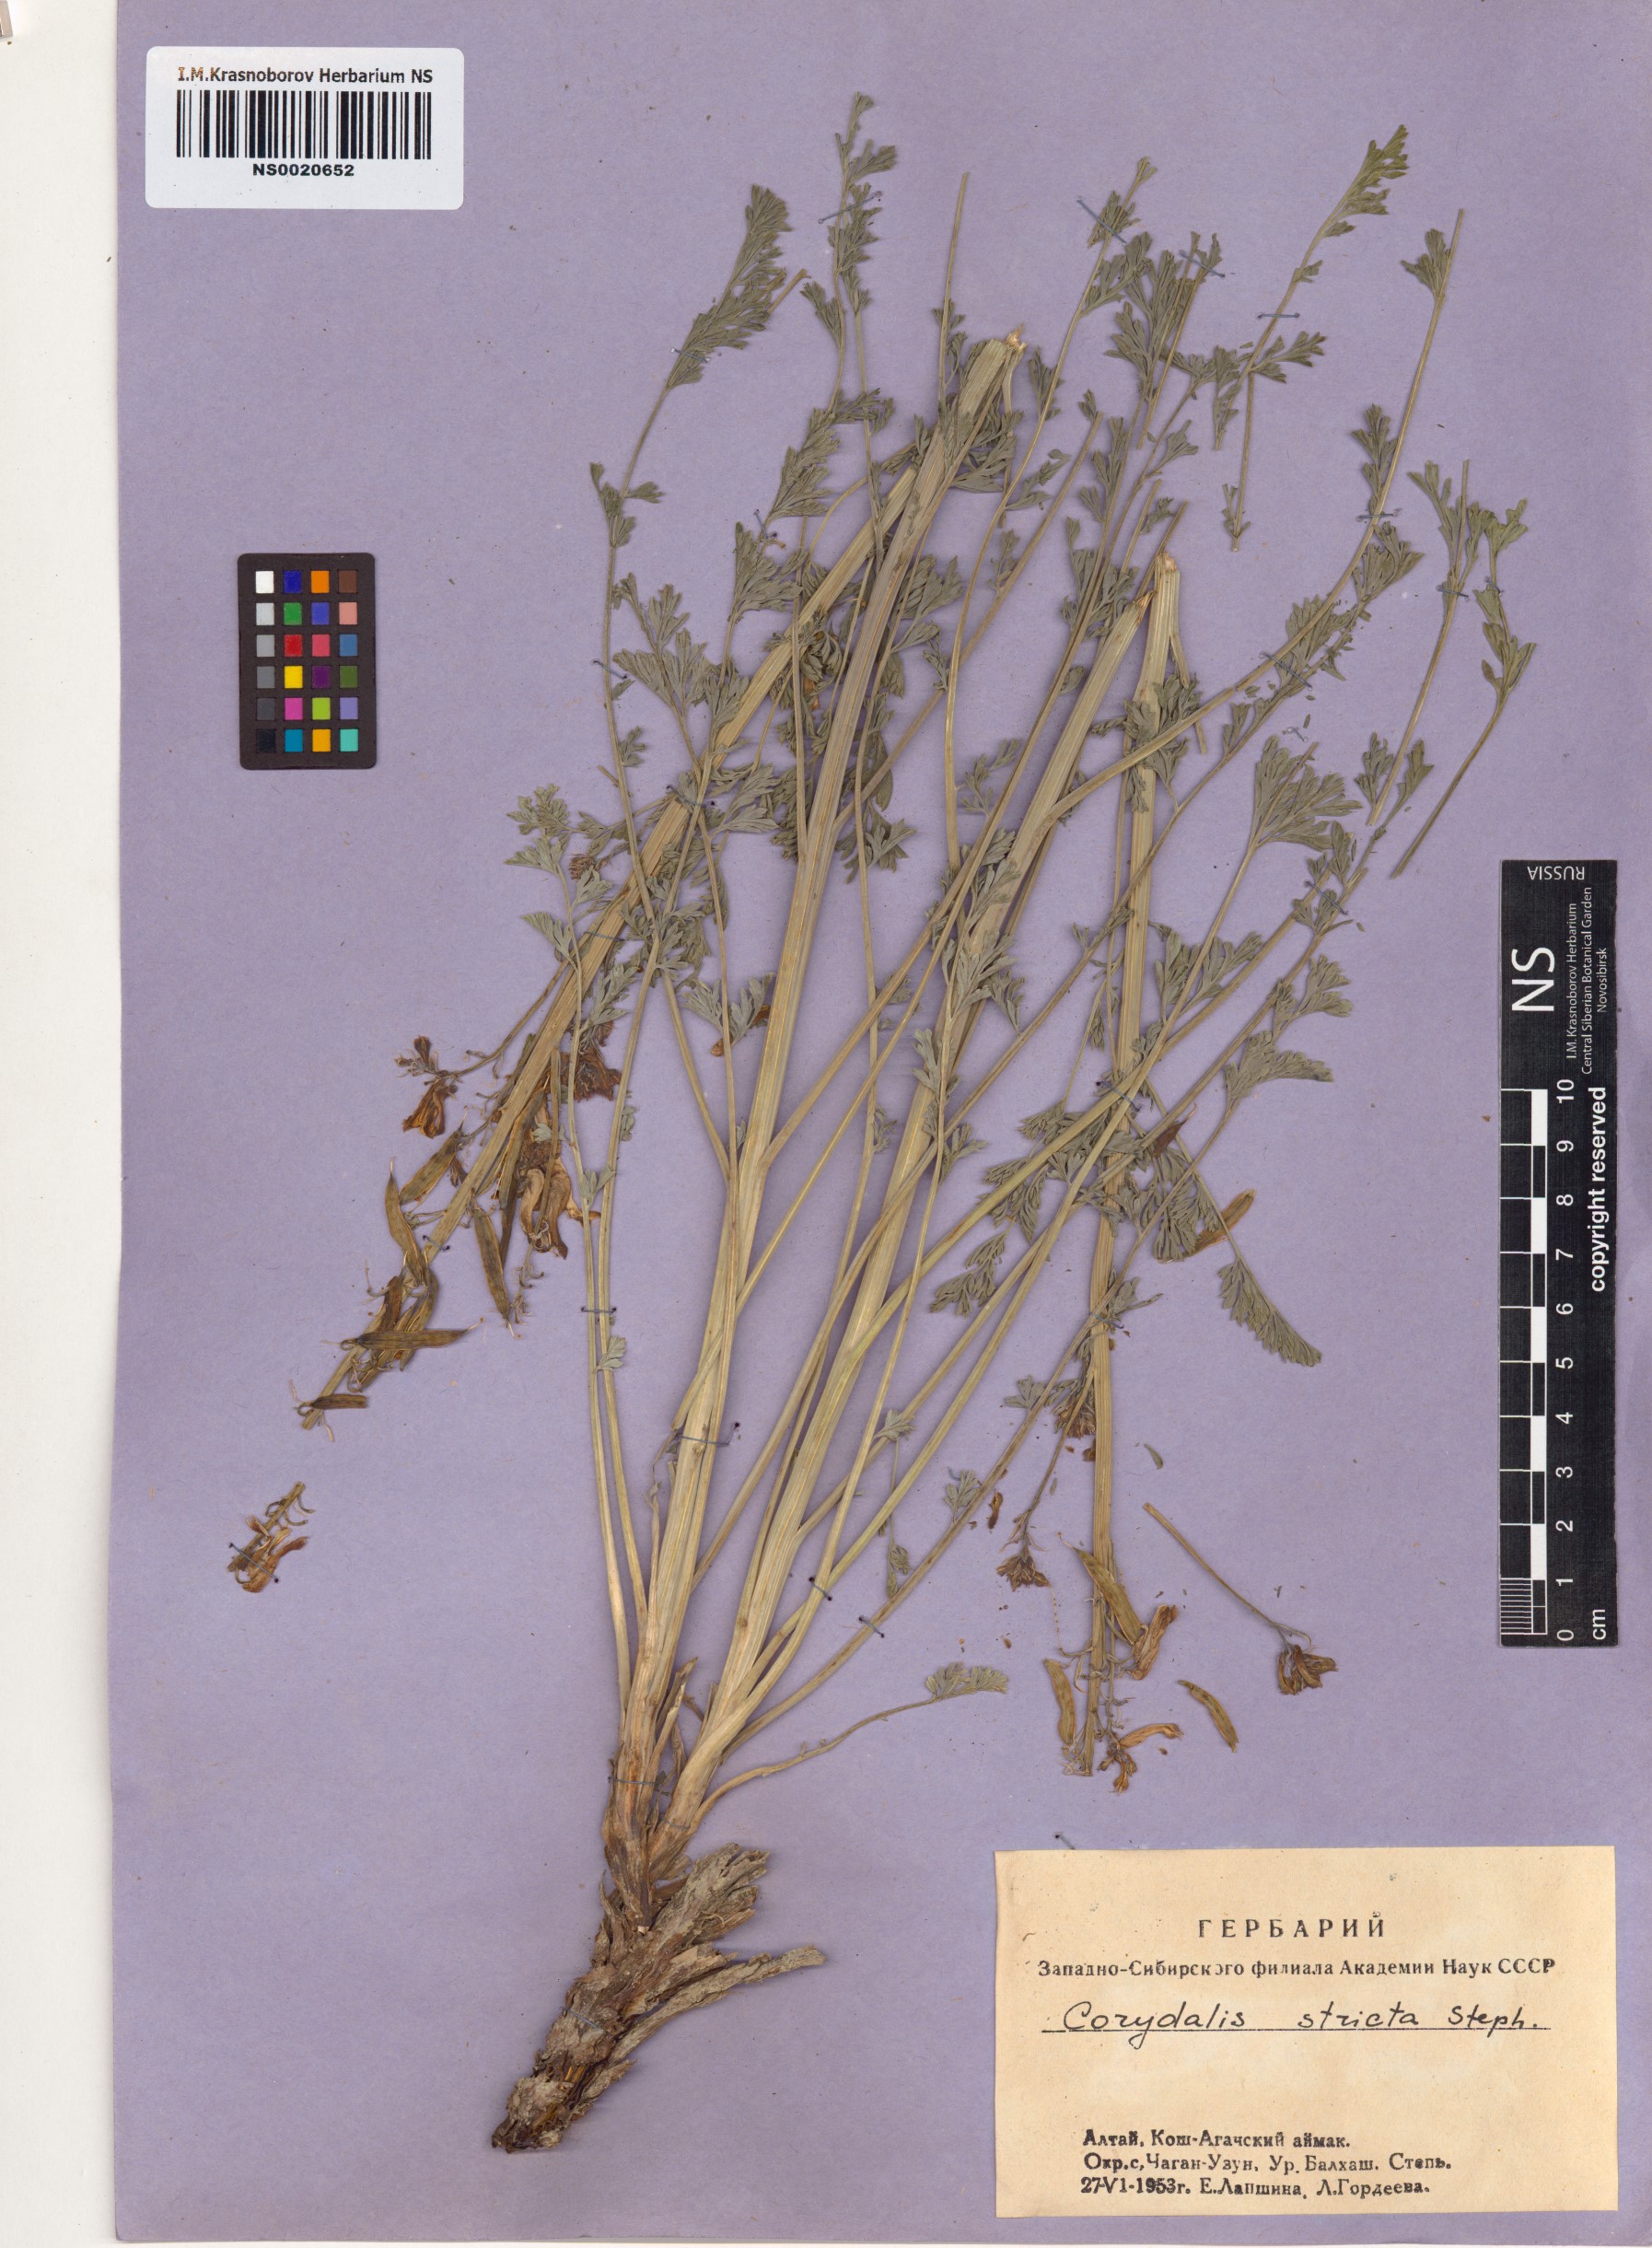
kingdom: Plantae
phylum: Tracheophyta
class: Magnoliopsida
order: Ranunculales
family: Papaveraceae
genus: Corydalis
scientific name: Corydalis stricta
